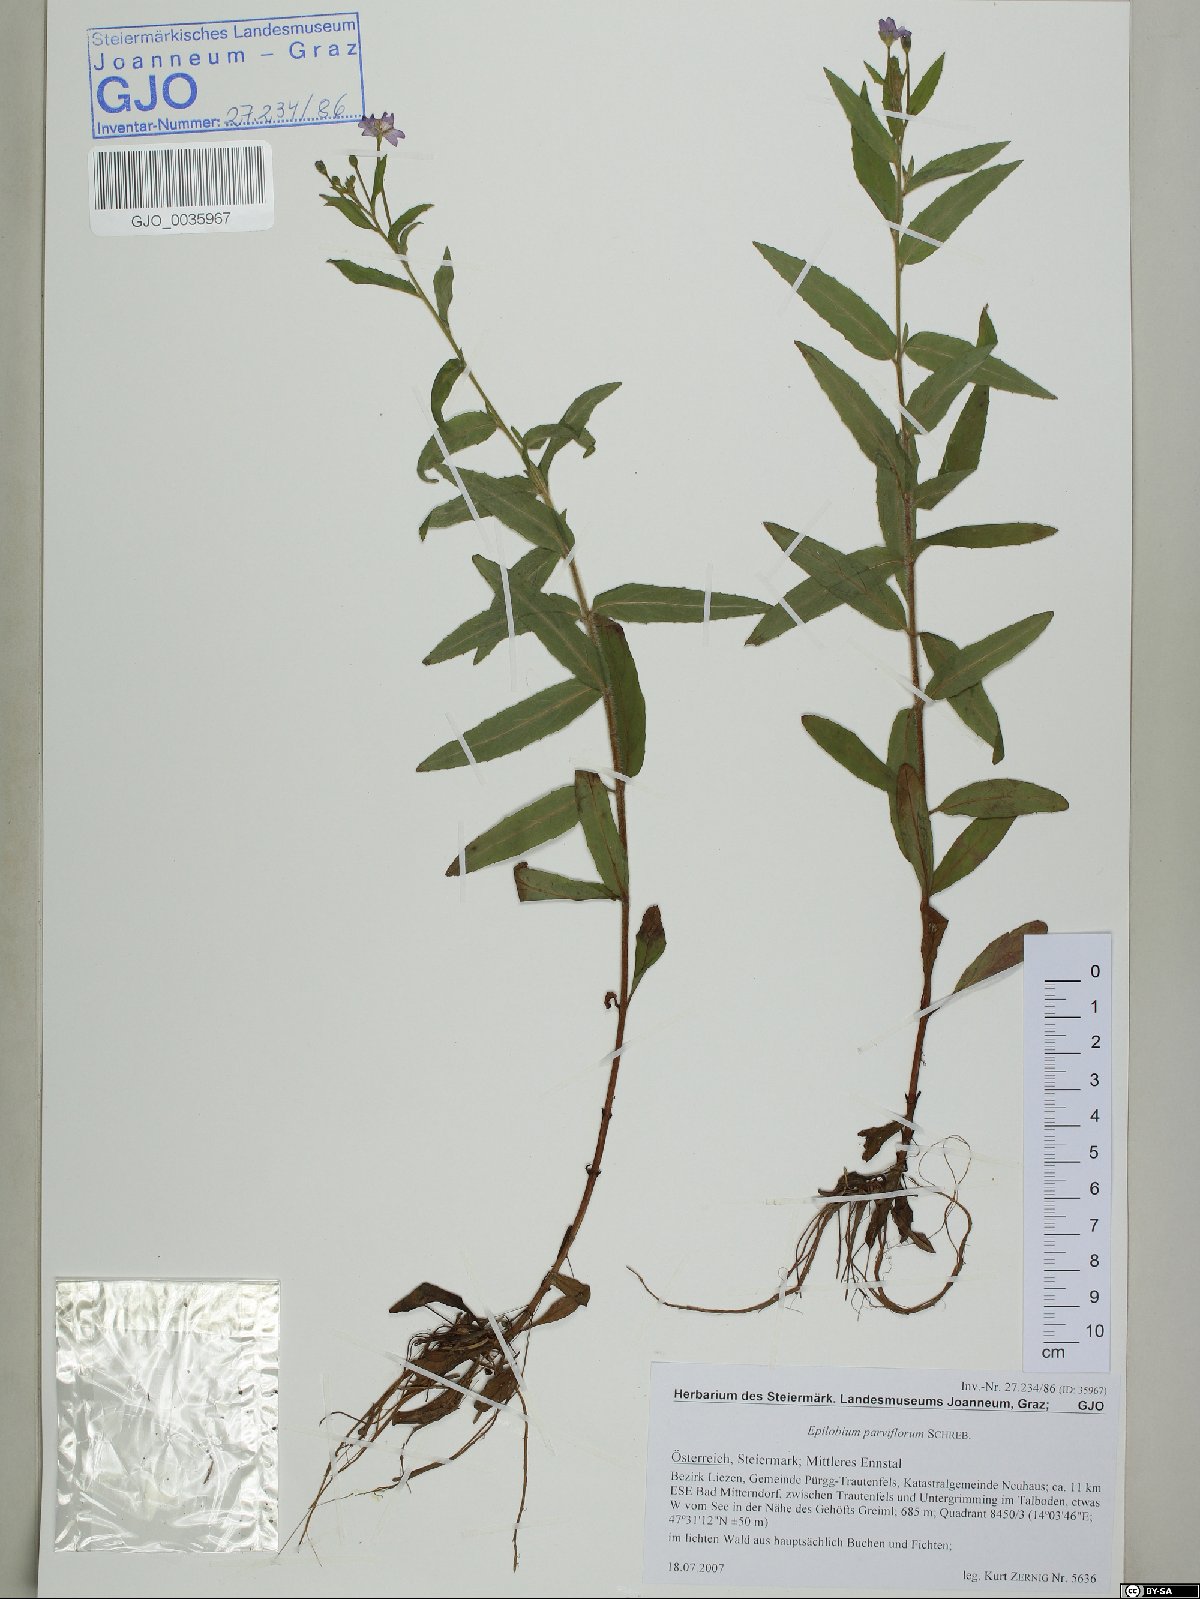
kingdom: Plantae
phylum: Tracheophyta
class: Magnoliopsida
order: Myrtales
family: Onagraceae
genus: Epilobium
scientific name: Epilobium parviflorum
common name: Hoary willowherb
